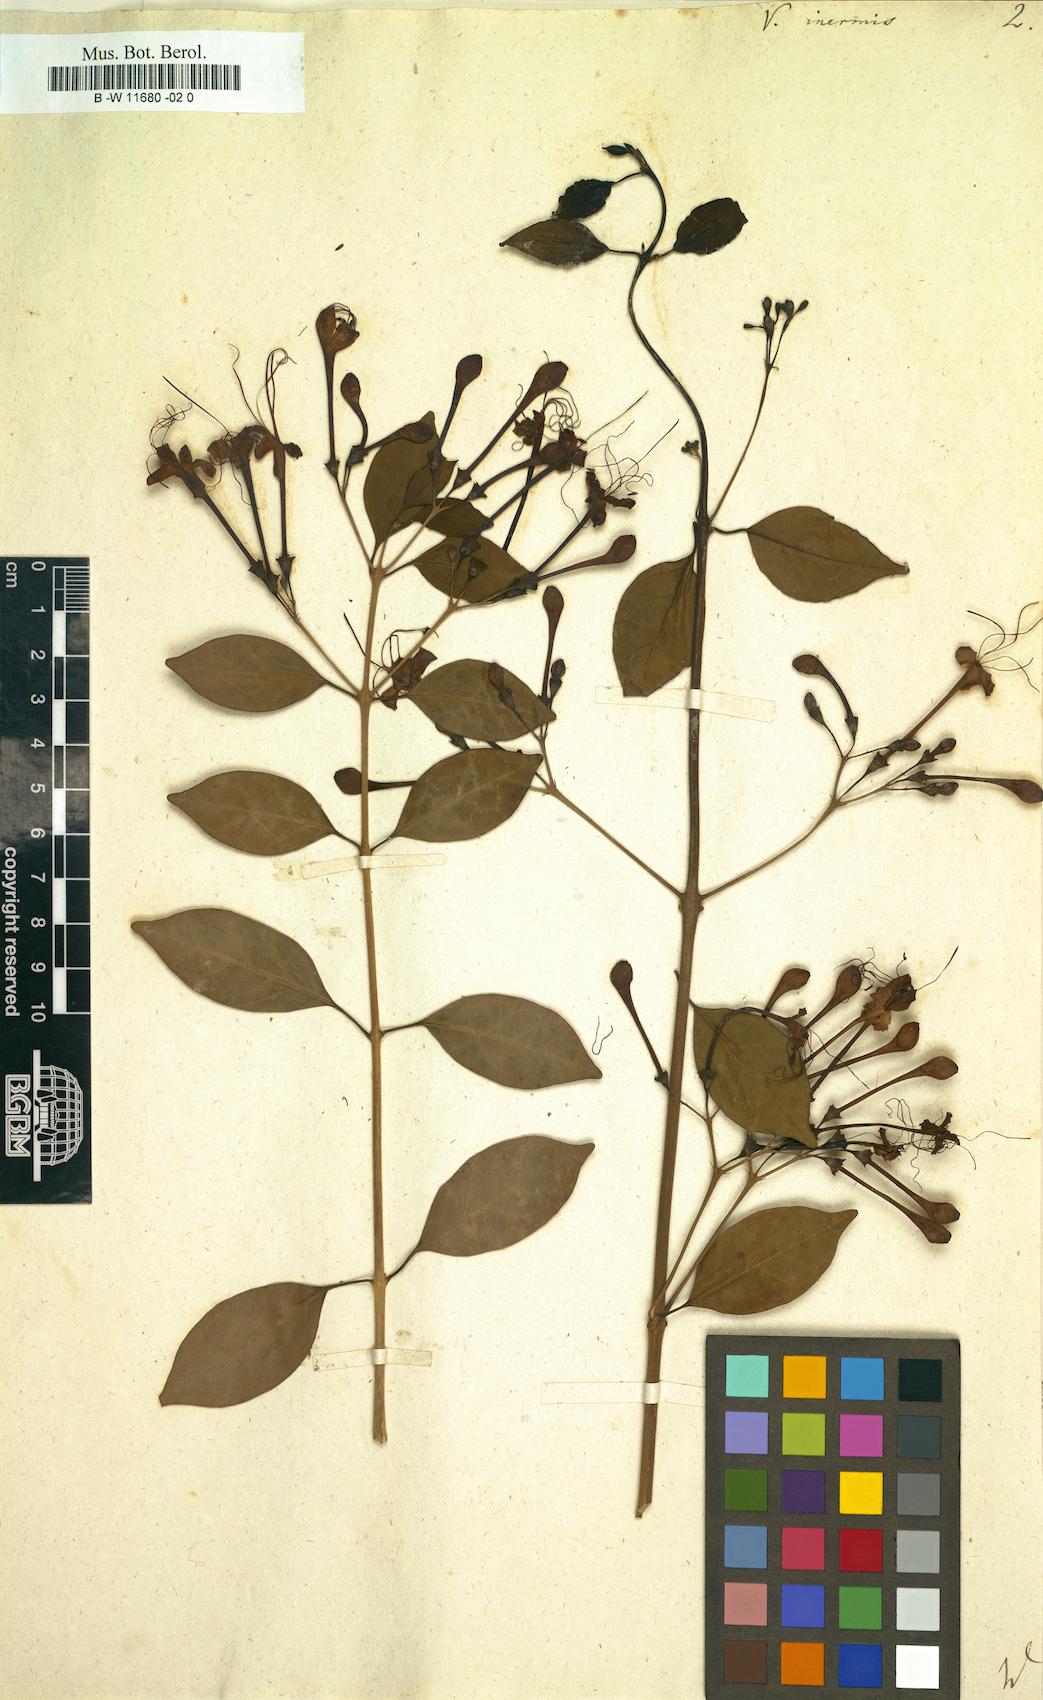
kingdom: Plantae
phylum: Tracheophyta
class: Magnoliopsida
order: Lamiales
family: Lamiaceae
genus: Volkameria
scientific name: Volkameria inermis
